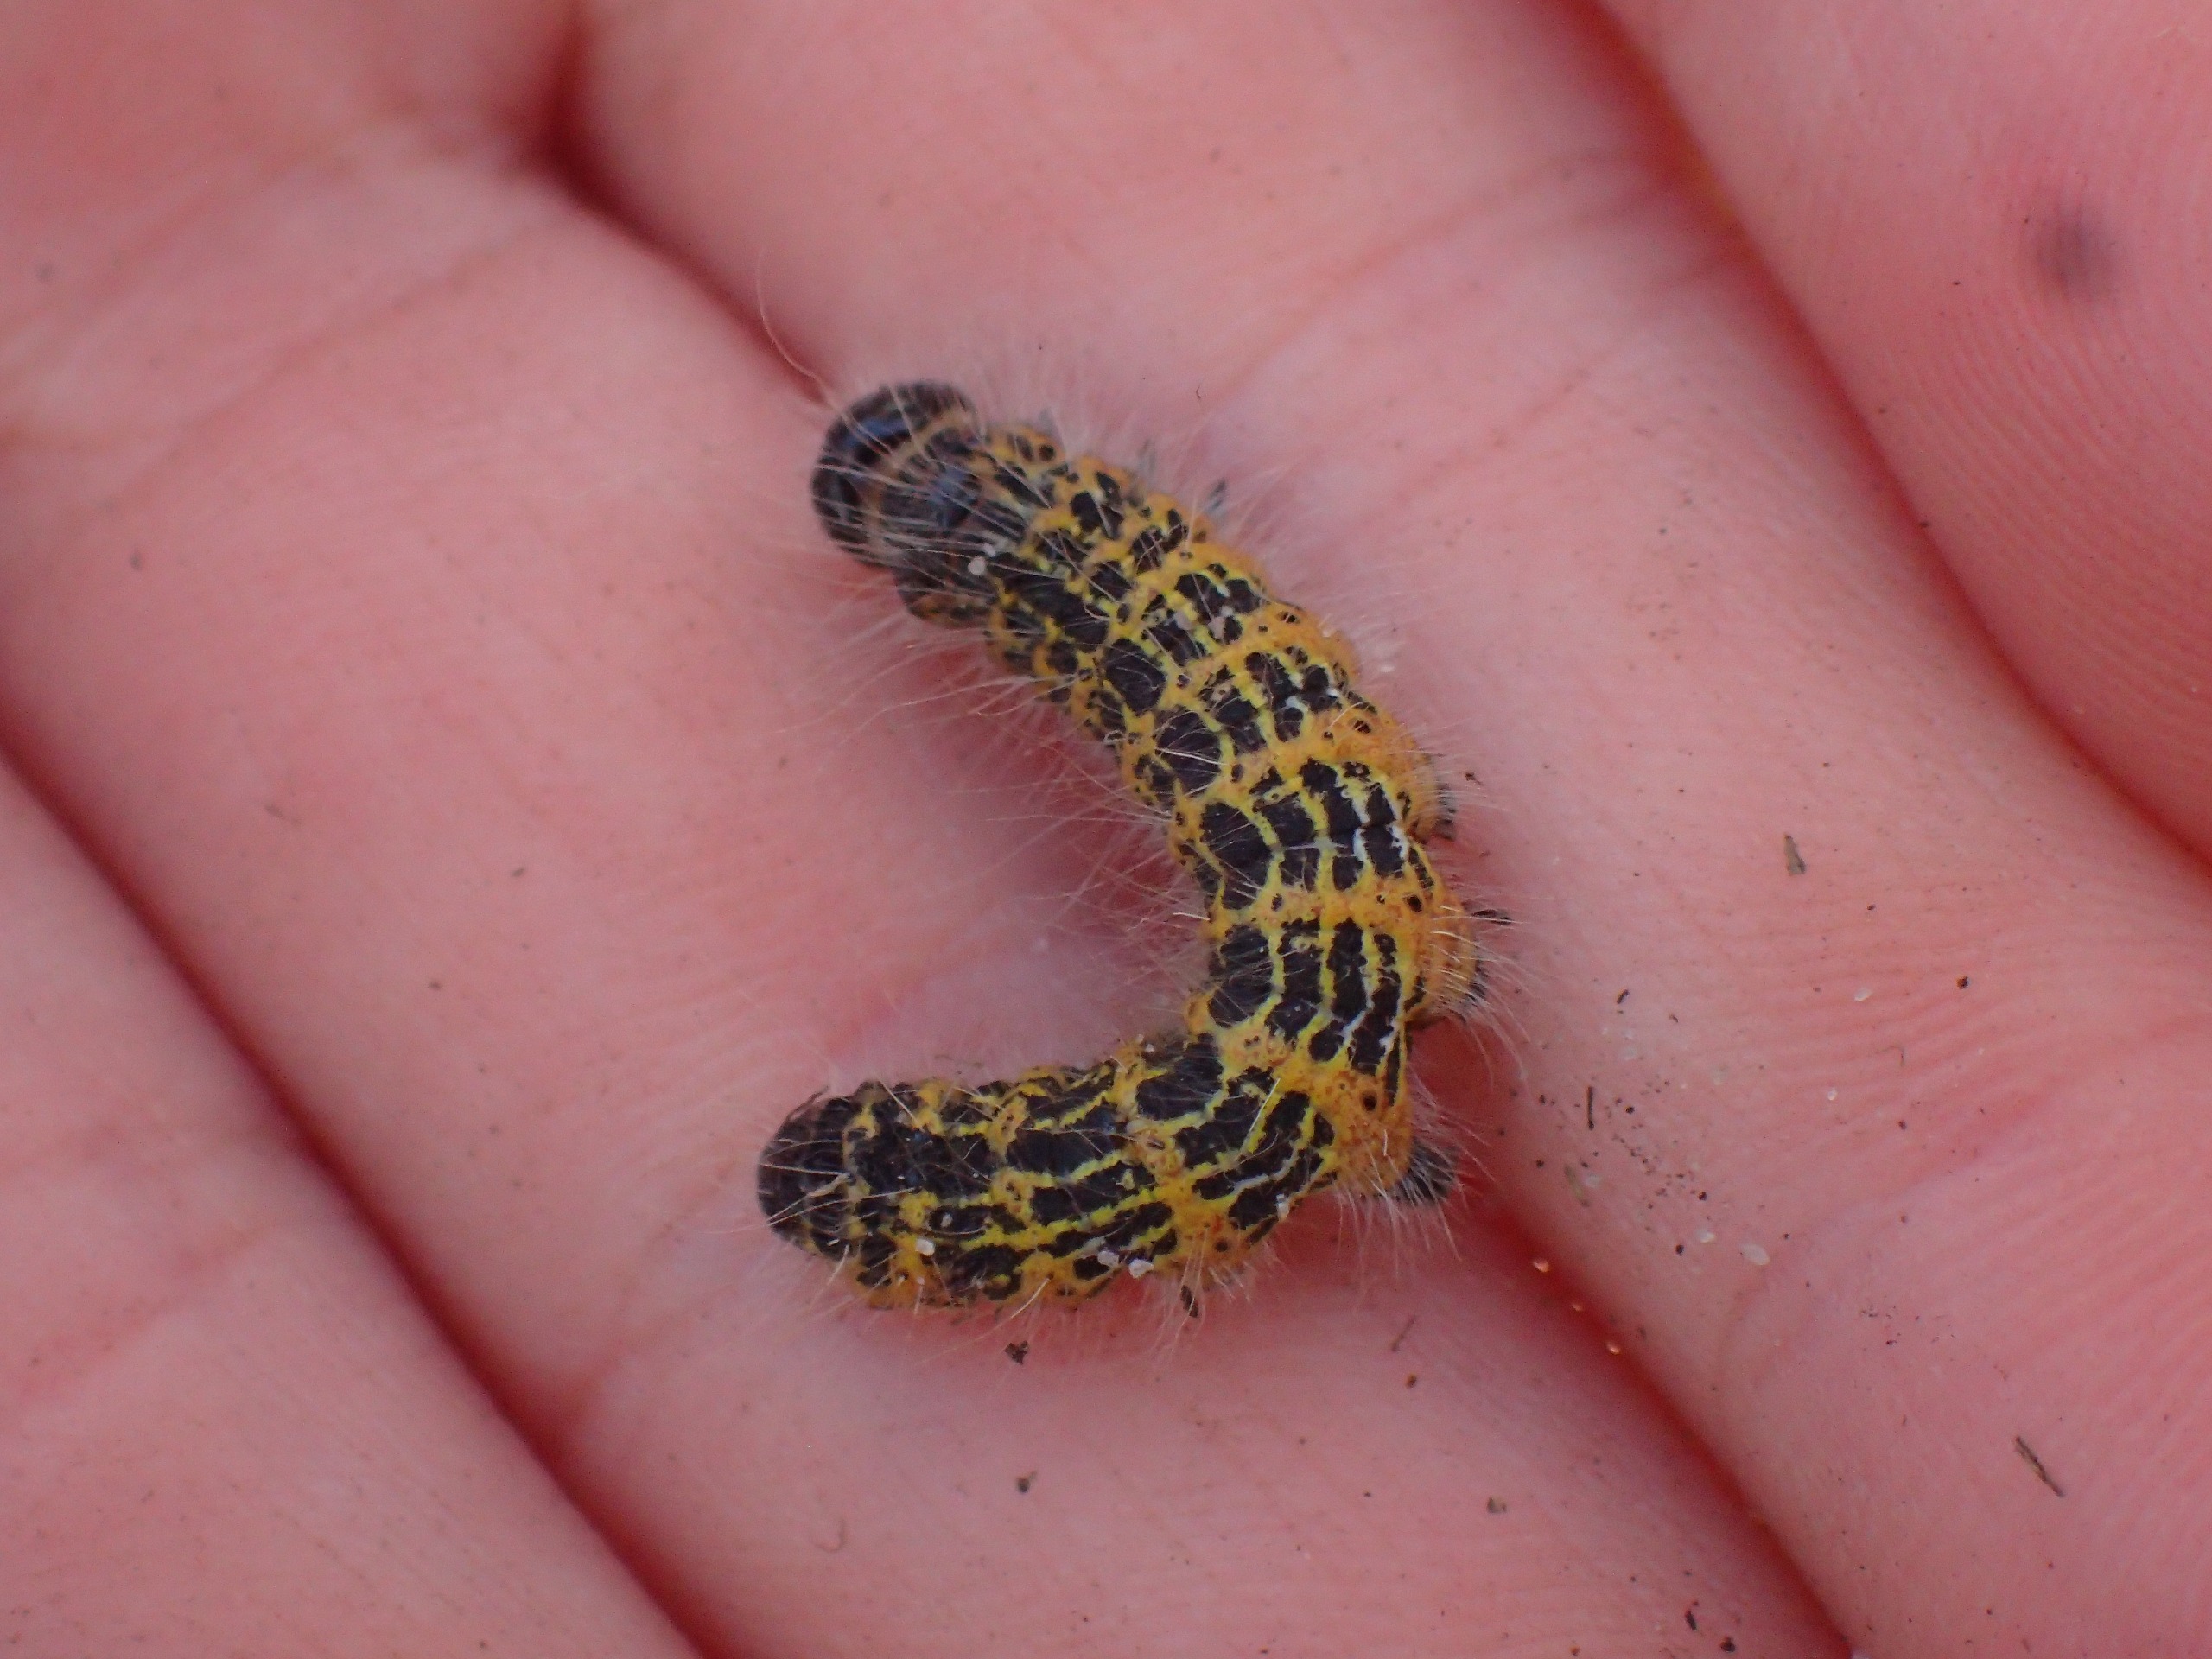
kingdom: Animalia
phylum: Arthropoda
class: Insecta
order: Lepidoptera
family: Notodontidae
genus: Phalera
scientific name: Phalera bucephala
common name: Måneplet
